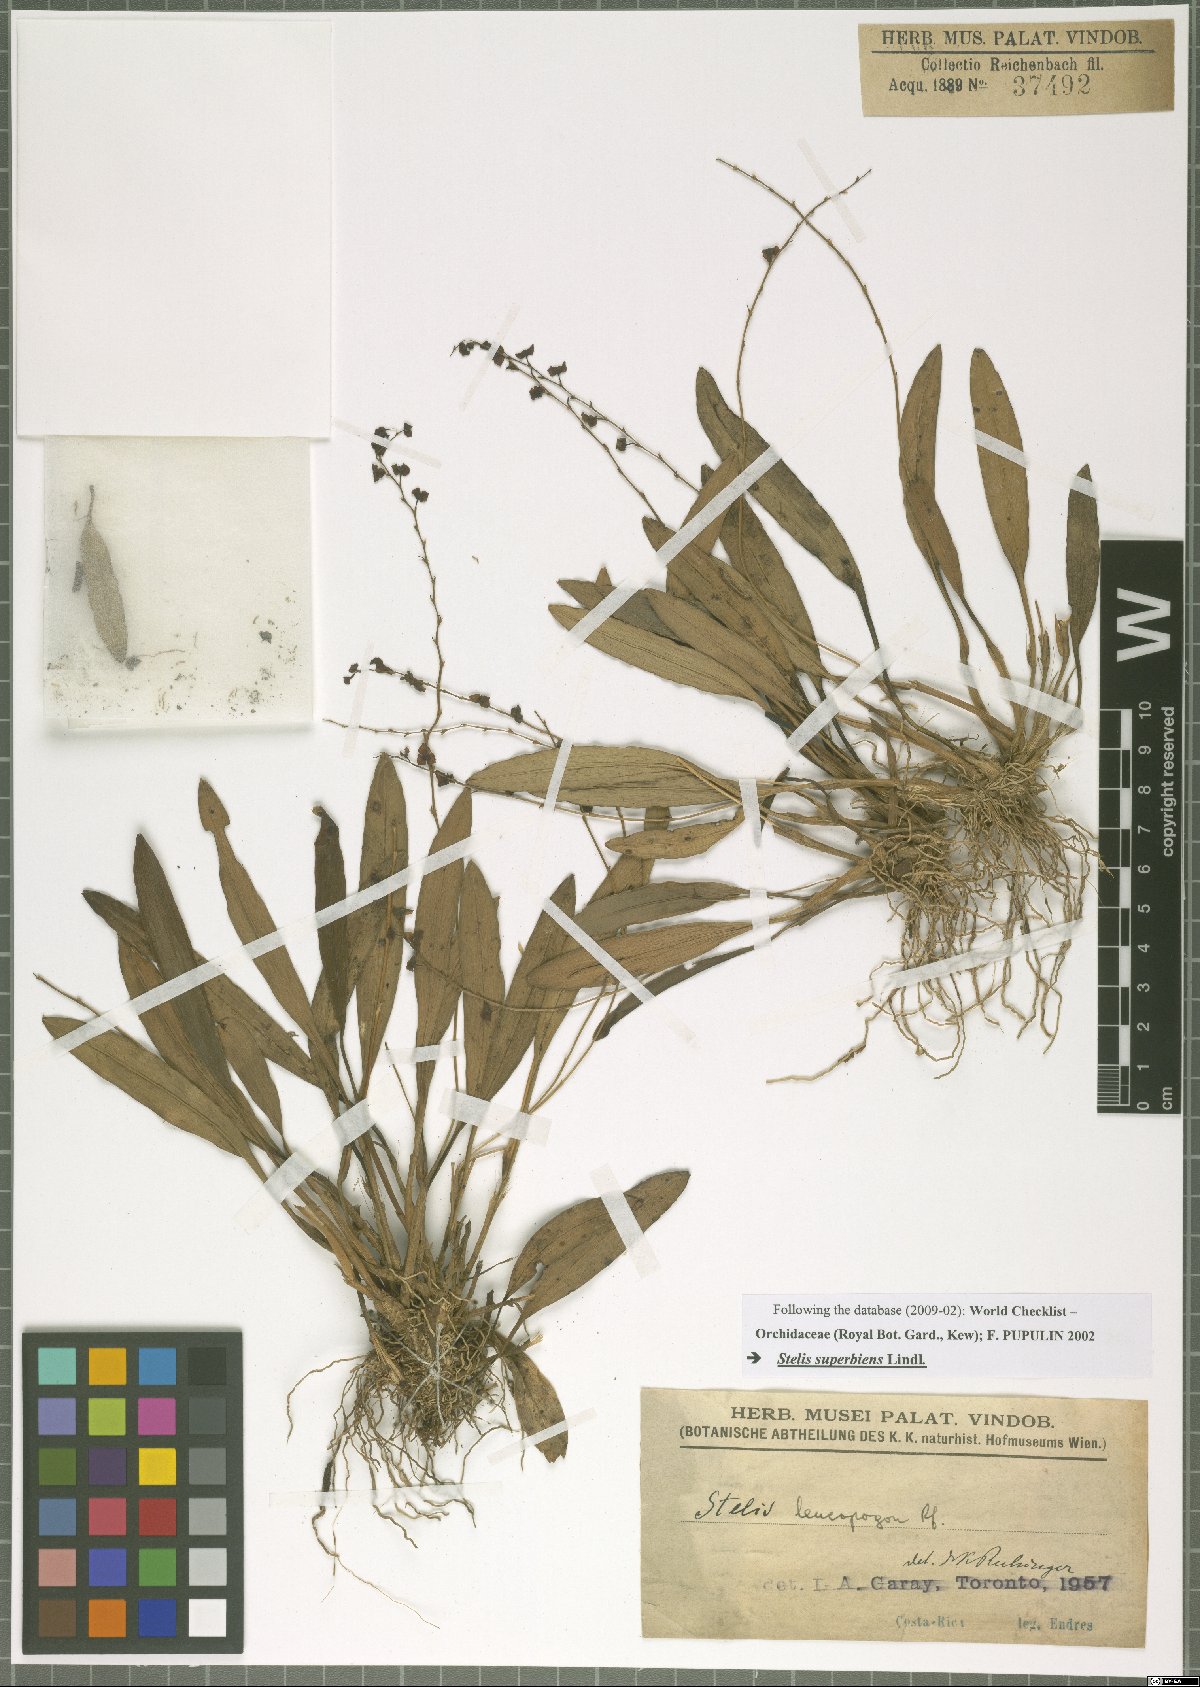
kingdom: Plantae
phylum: Tracheophyta
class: Liliopsida
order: Asparagales
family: Orchidaceae
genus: Stelis
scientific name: Stelis superbiens
